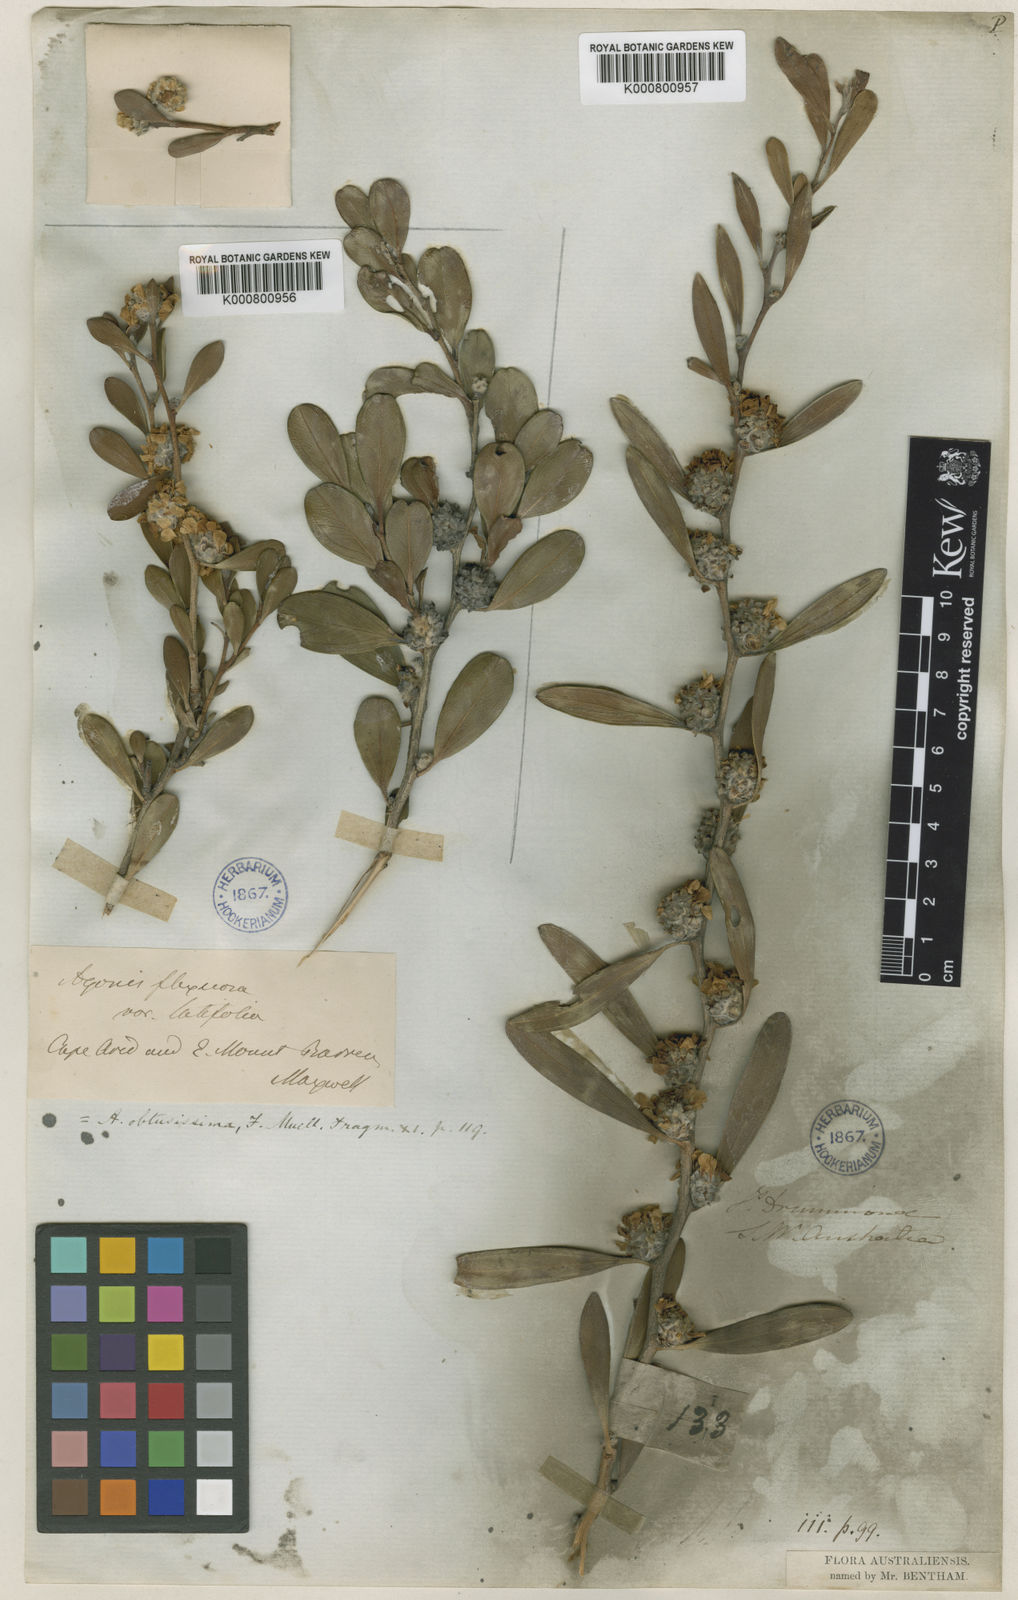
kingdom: Plantae
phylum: Tracheophyta
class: Magnoliopsida
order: Myrtales
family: Myrtaceae
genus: Agonis
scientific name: Agonis baxteri
